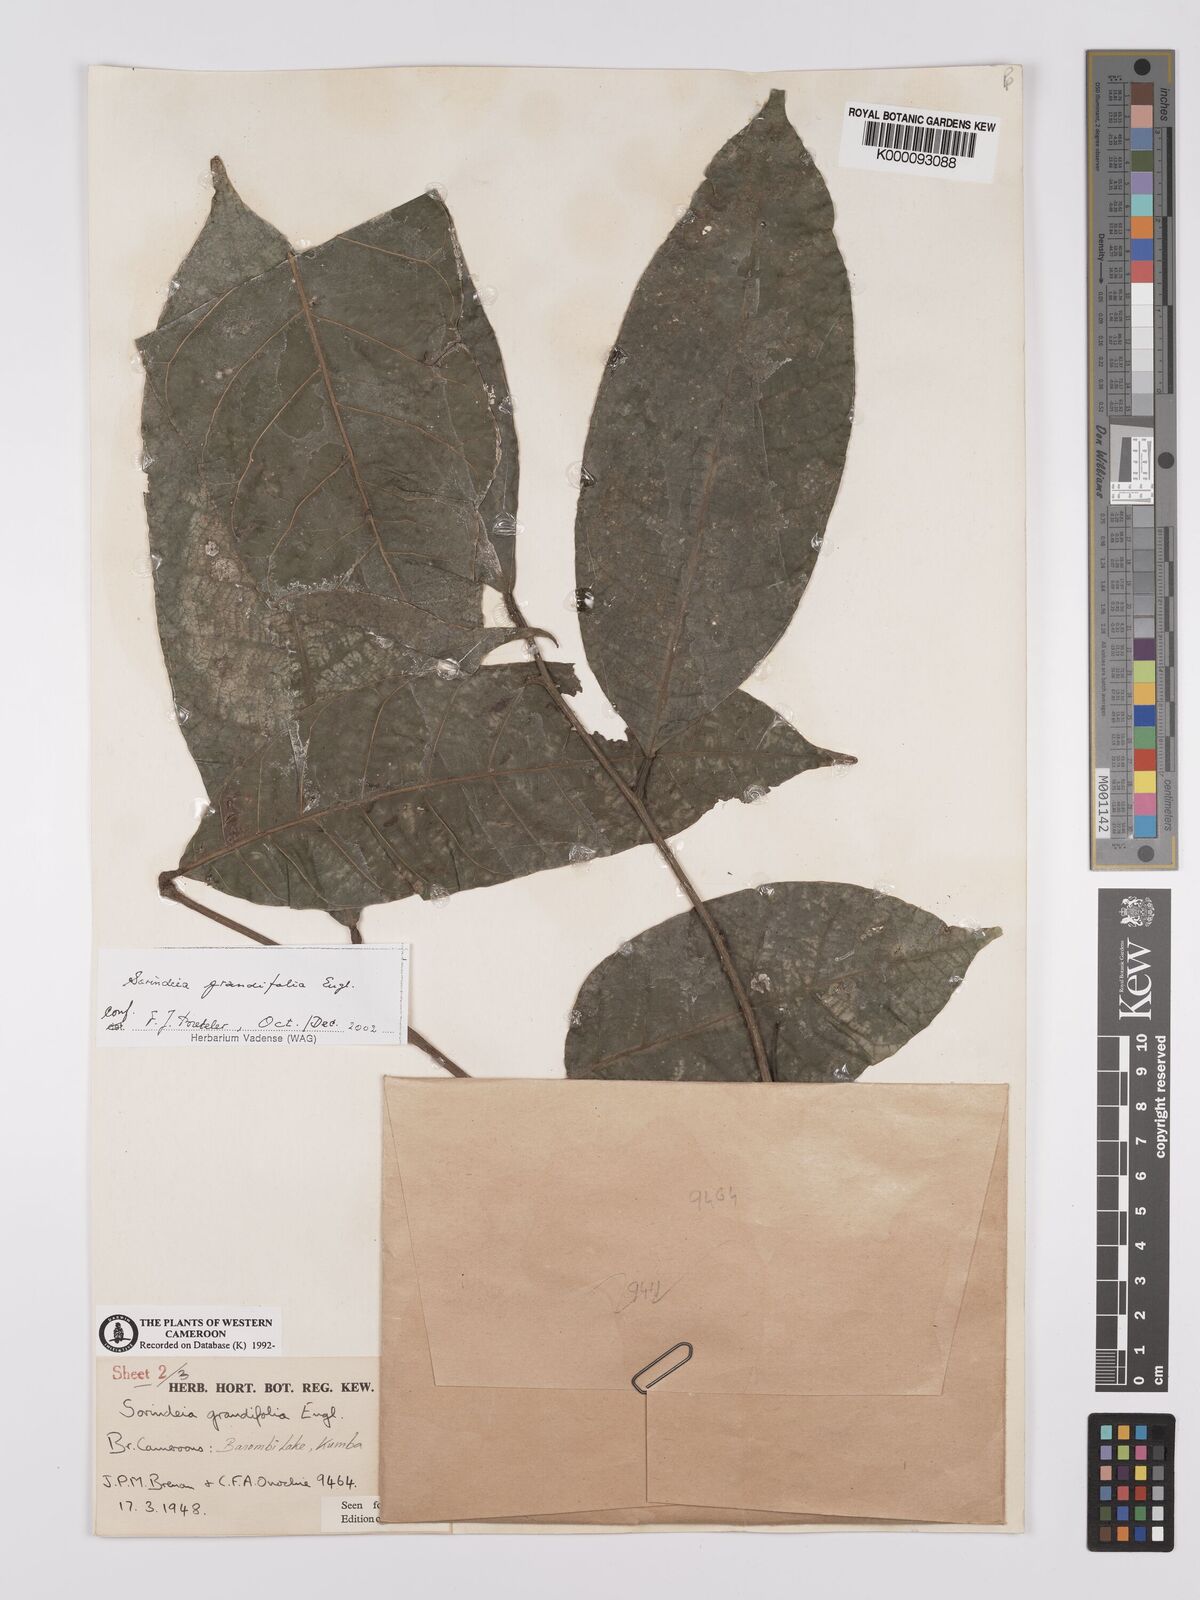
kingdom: Plantae
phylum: Tracheophyta
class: Magnoliopsida
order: Sapindales
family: Anacardiaceae
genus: Sorindeia
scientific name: Sorindeia grandifolia
